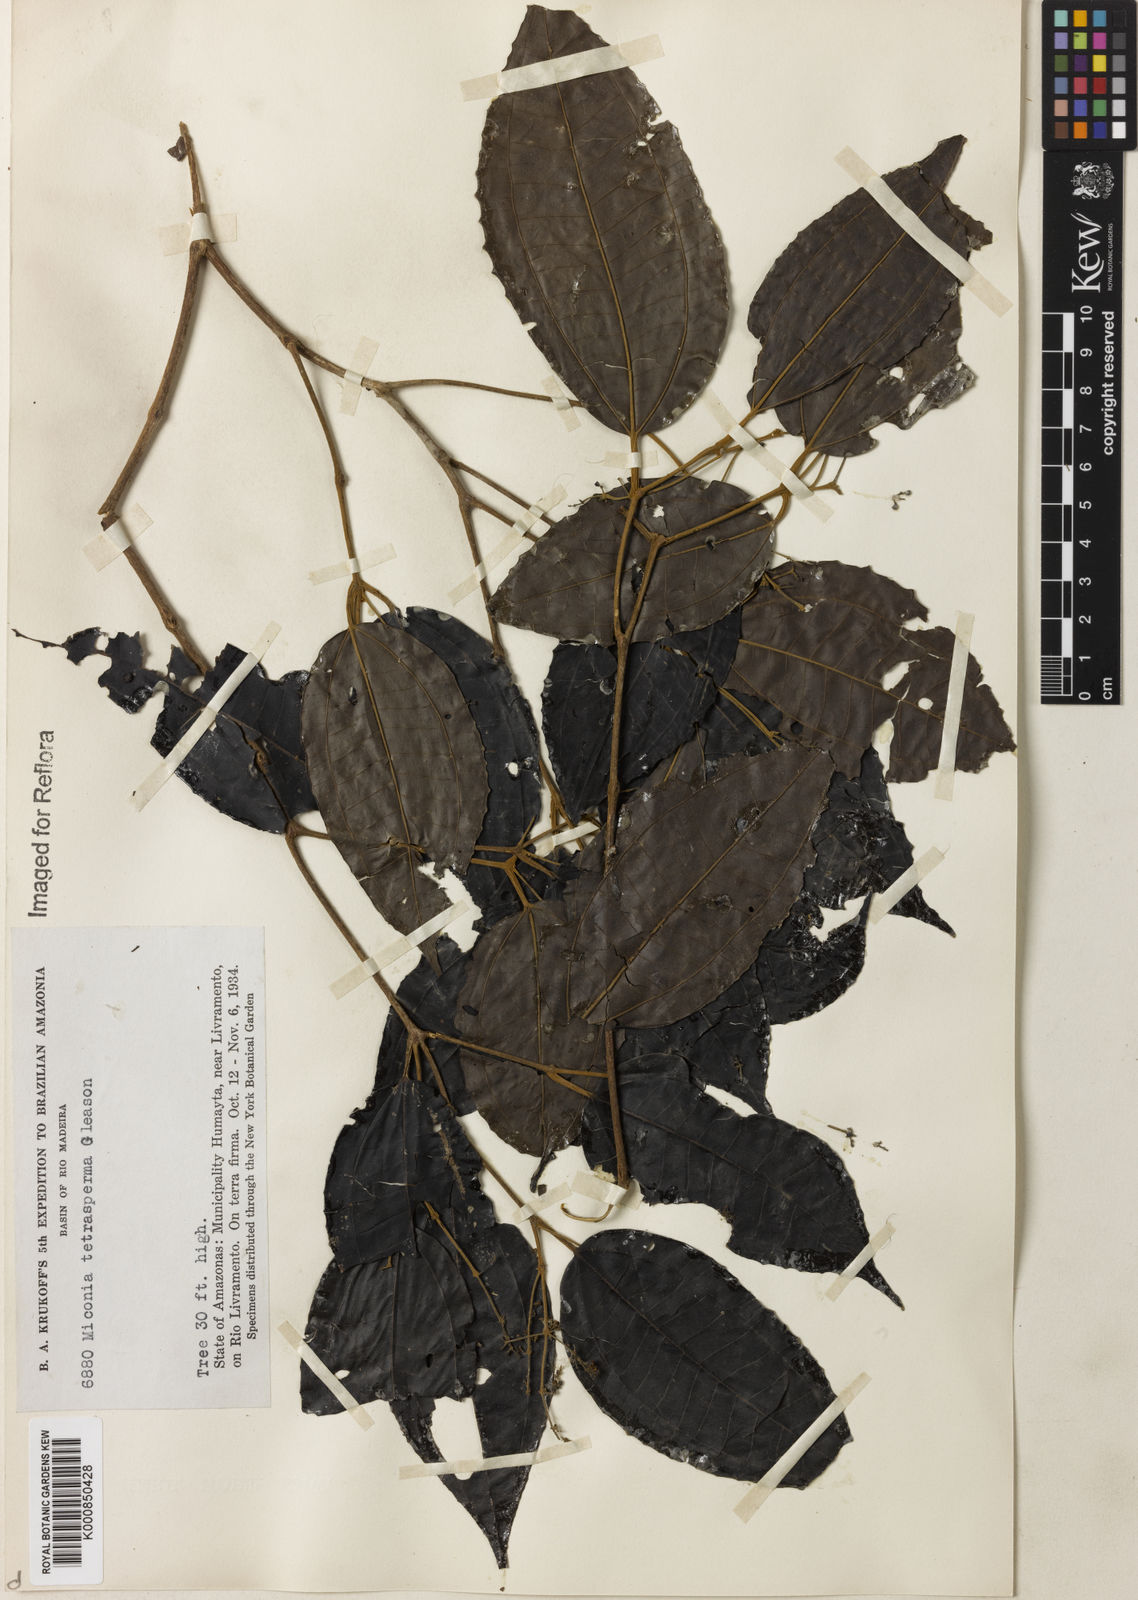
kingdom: Plantae
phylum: Tracheophyta
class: Magnoliopsida
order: Myrtales
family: Melastomataceae
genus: Miconia
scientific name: Miconia tetrasperma
